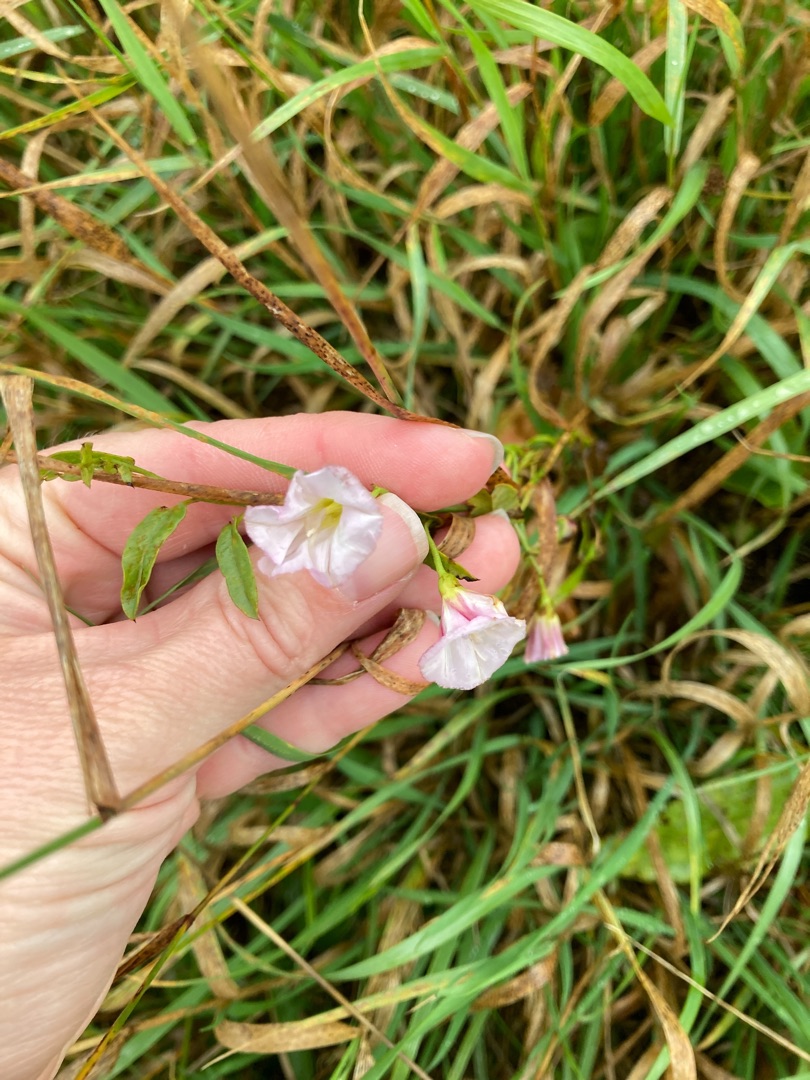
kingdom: Plantae
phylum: Tracheophyta
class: Magnoliopsida
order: Solanales
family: Convolvulaceae
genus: Convolvulus
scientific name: Convolvulus arvensis
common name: Ager-snerle
